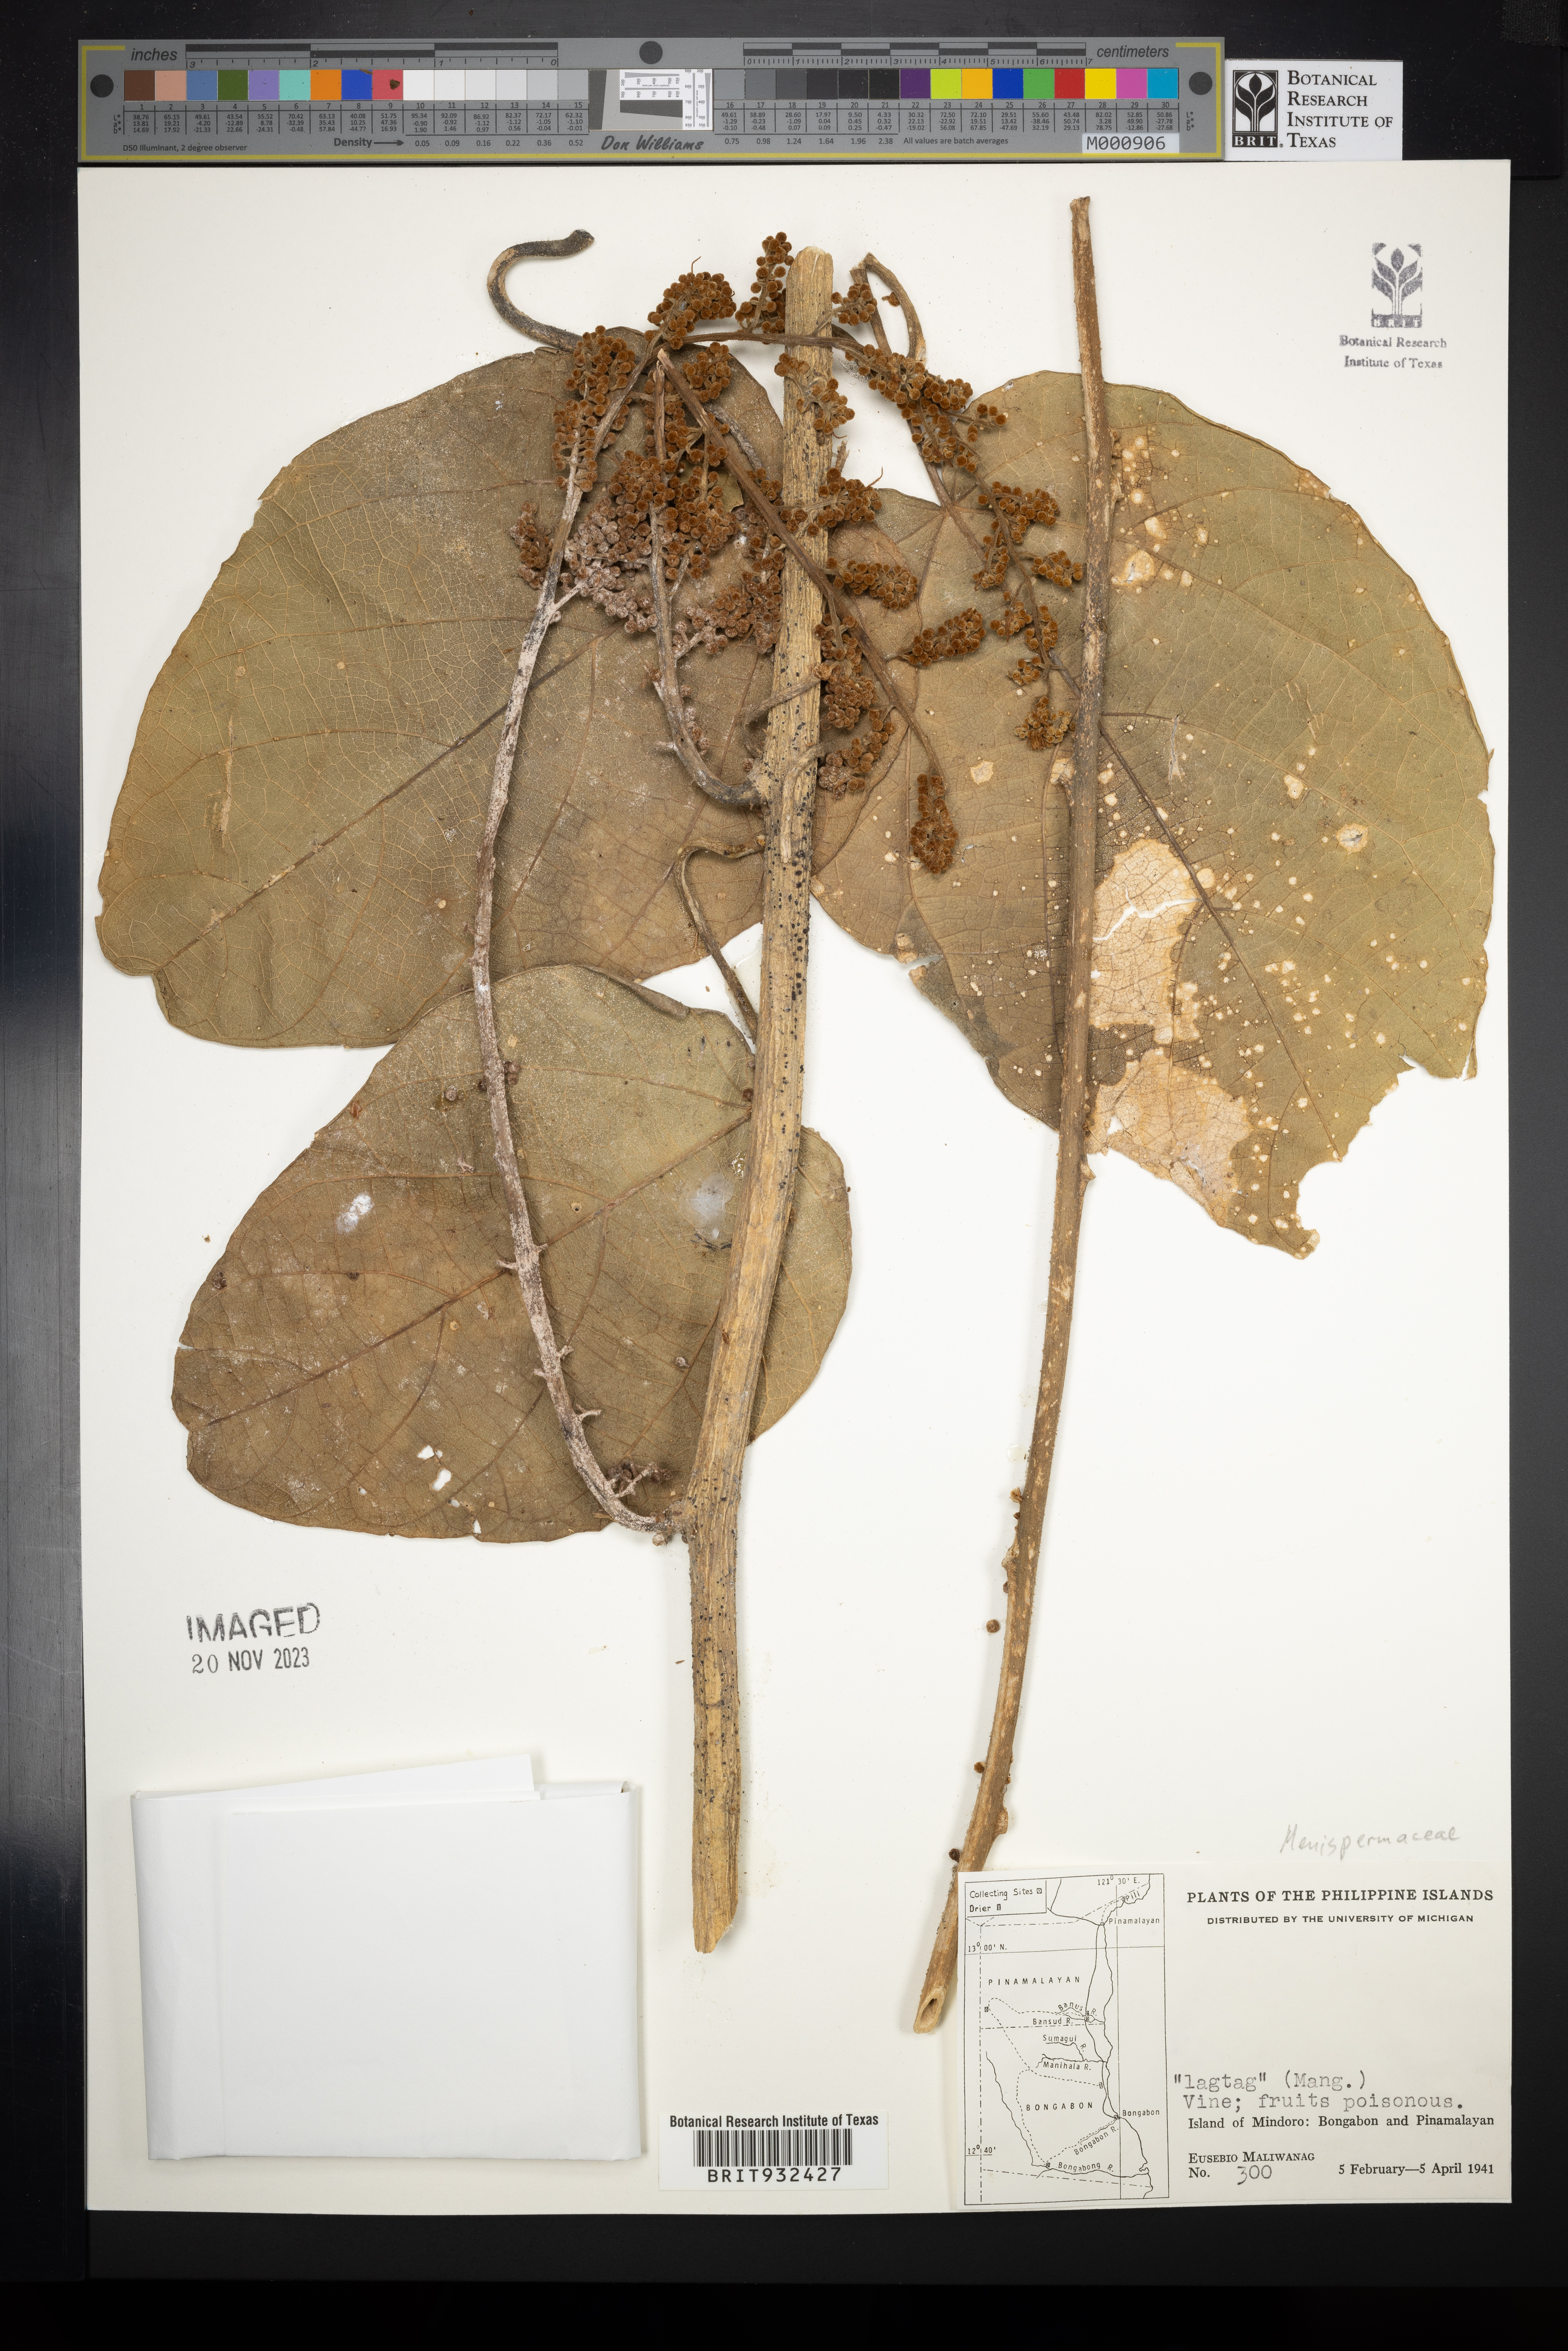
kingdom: Plantae
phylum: Tracheophyta
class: Magnoliopsida
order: Ranunculales
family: Menispermaceae
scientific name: Menispermaceae
